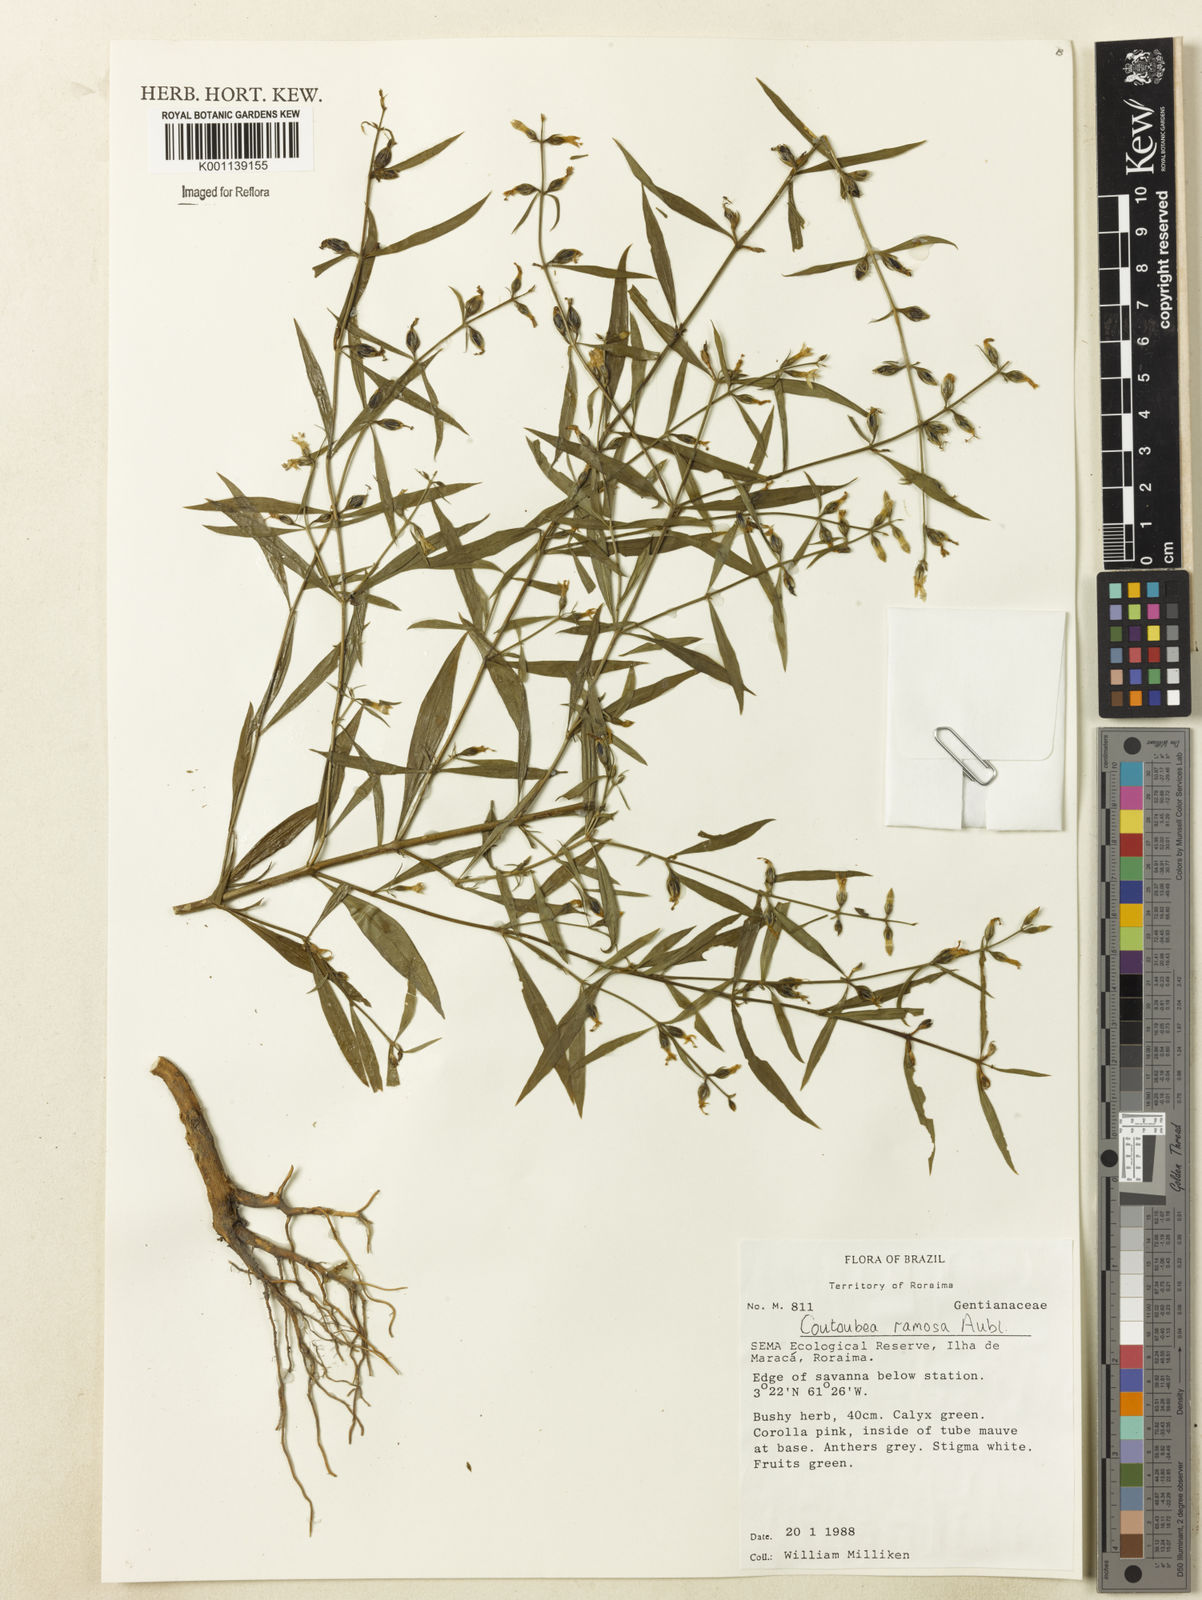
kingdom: Plantae
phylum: Tracheophyta
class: Magnoliopsida
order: Gentianales
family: Gentianaceae
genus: Coutoubea
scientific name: Coutoubea ramosa
